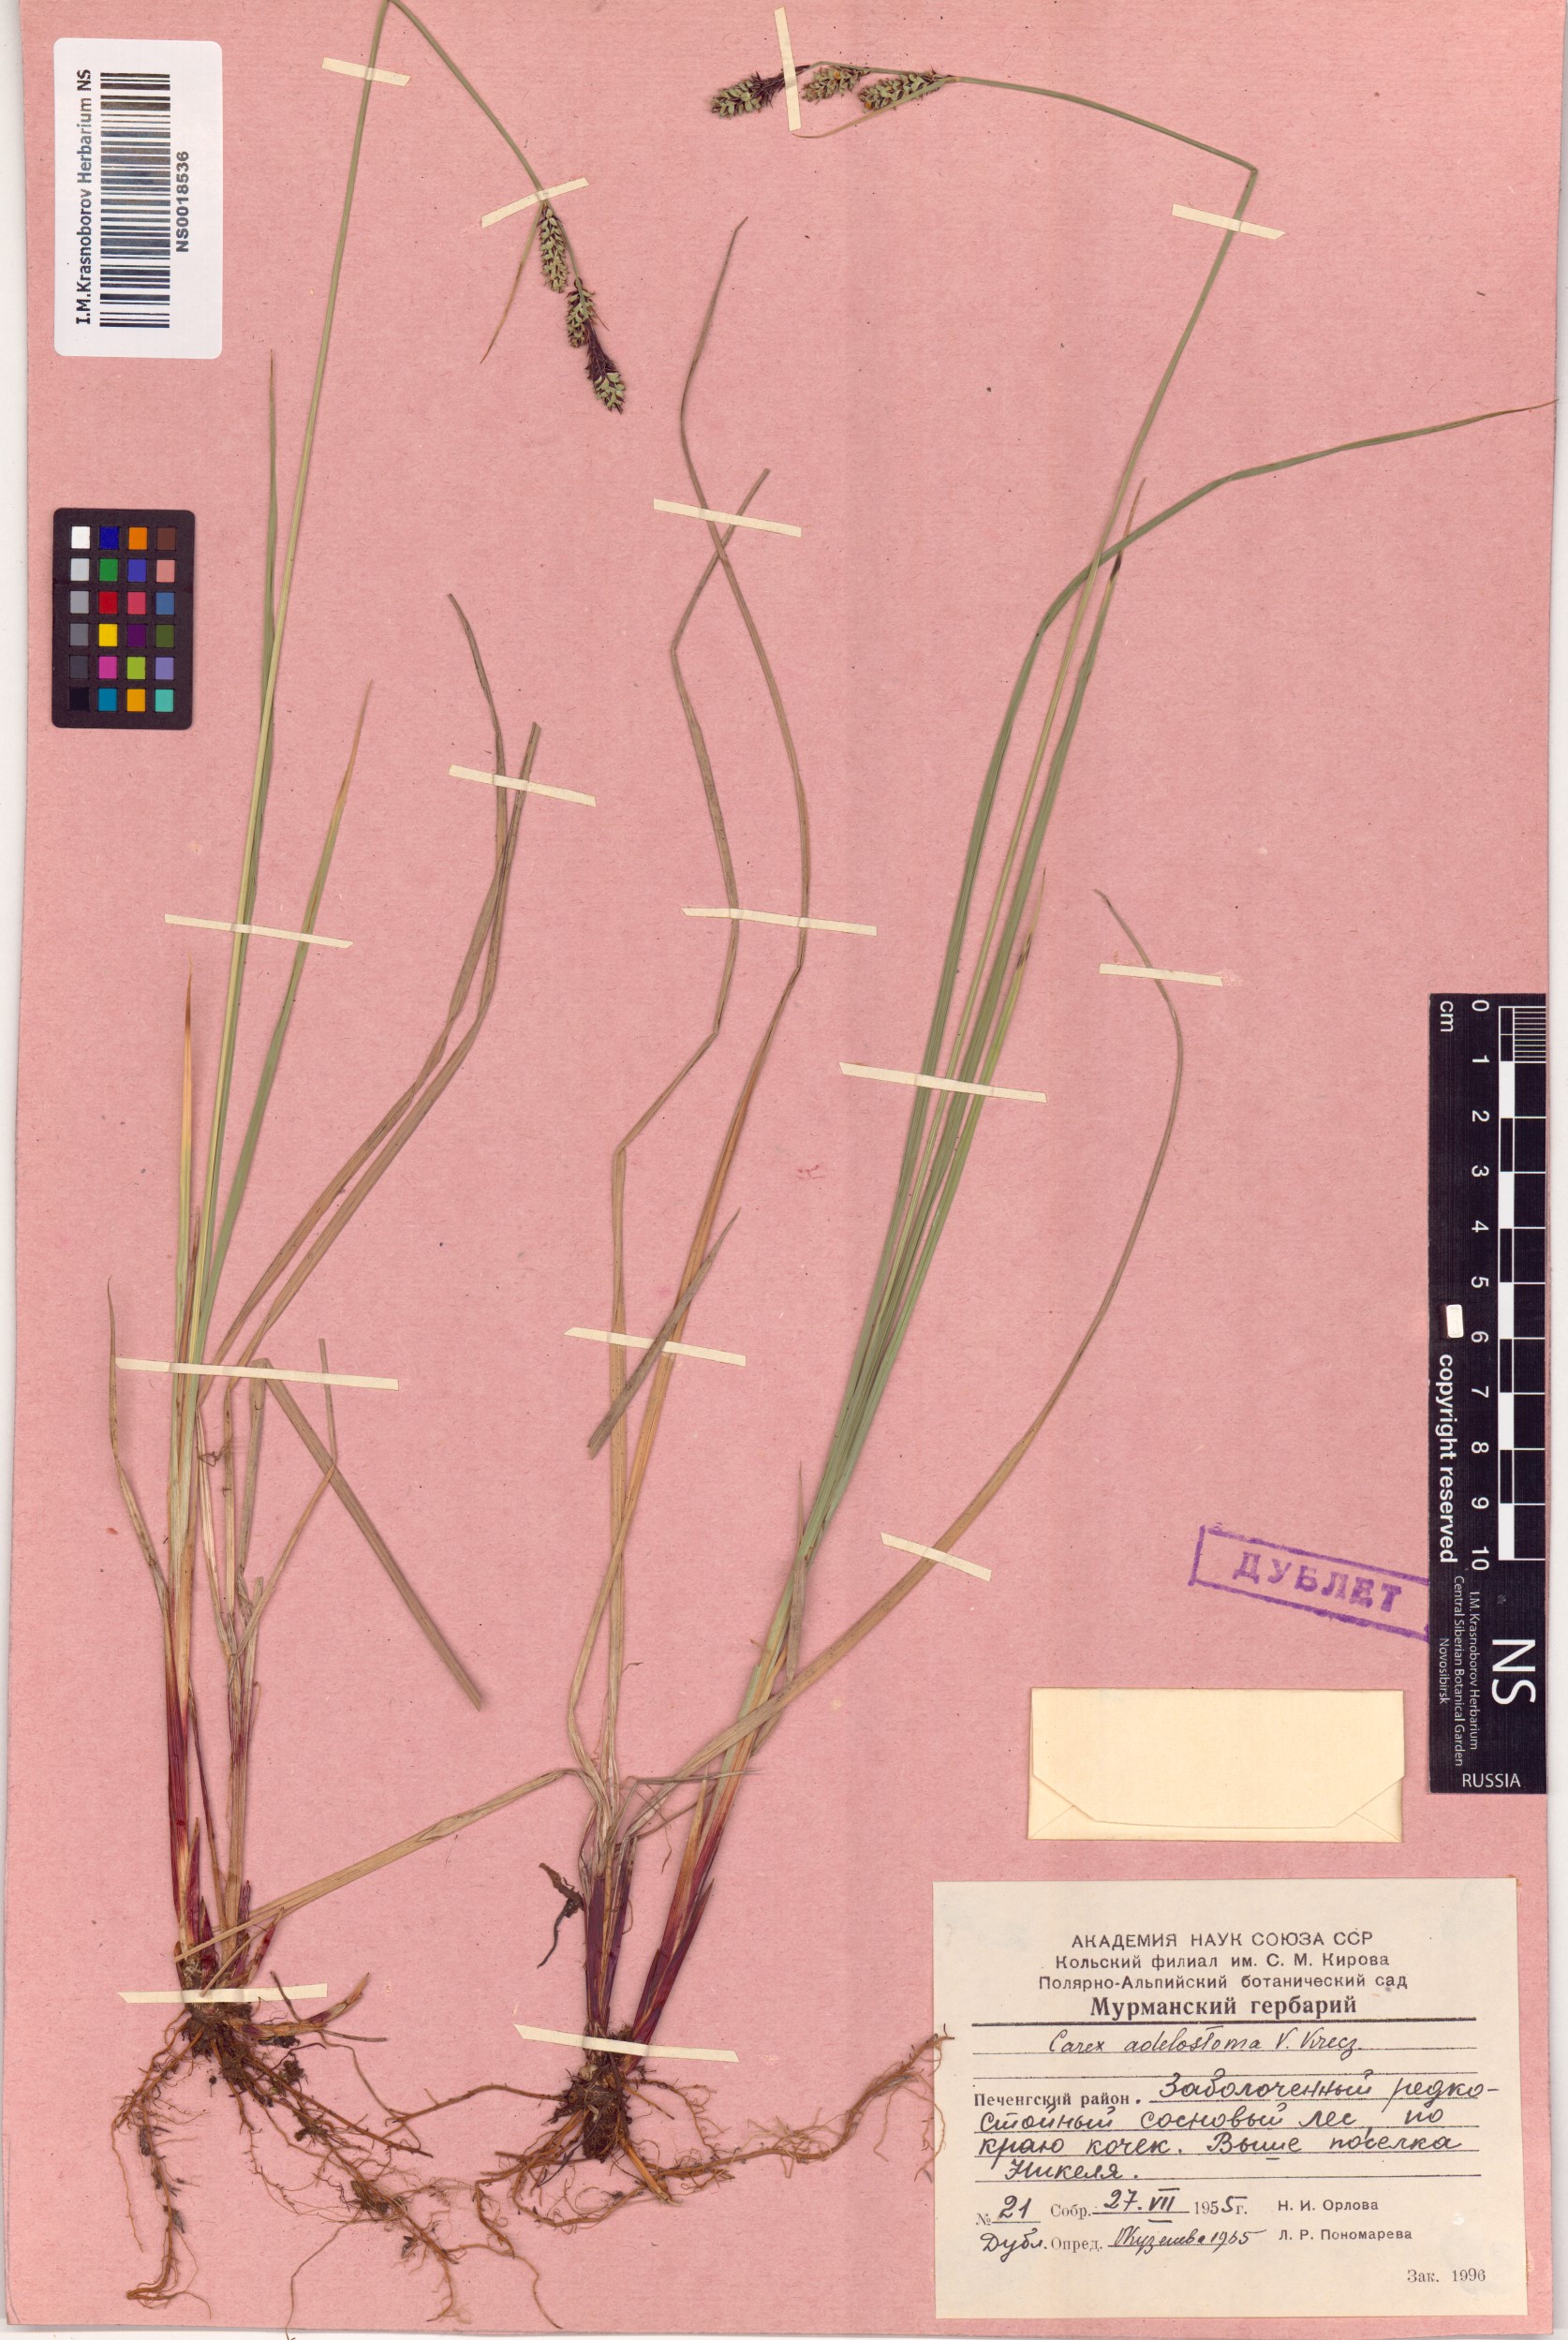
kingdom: Plantae
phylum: Tracheophyta
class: Liliopsida
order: Poales
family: Cyperaceae
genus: Carex
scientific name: Carex adelostoma
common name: Circumpolar sedge
